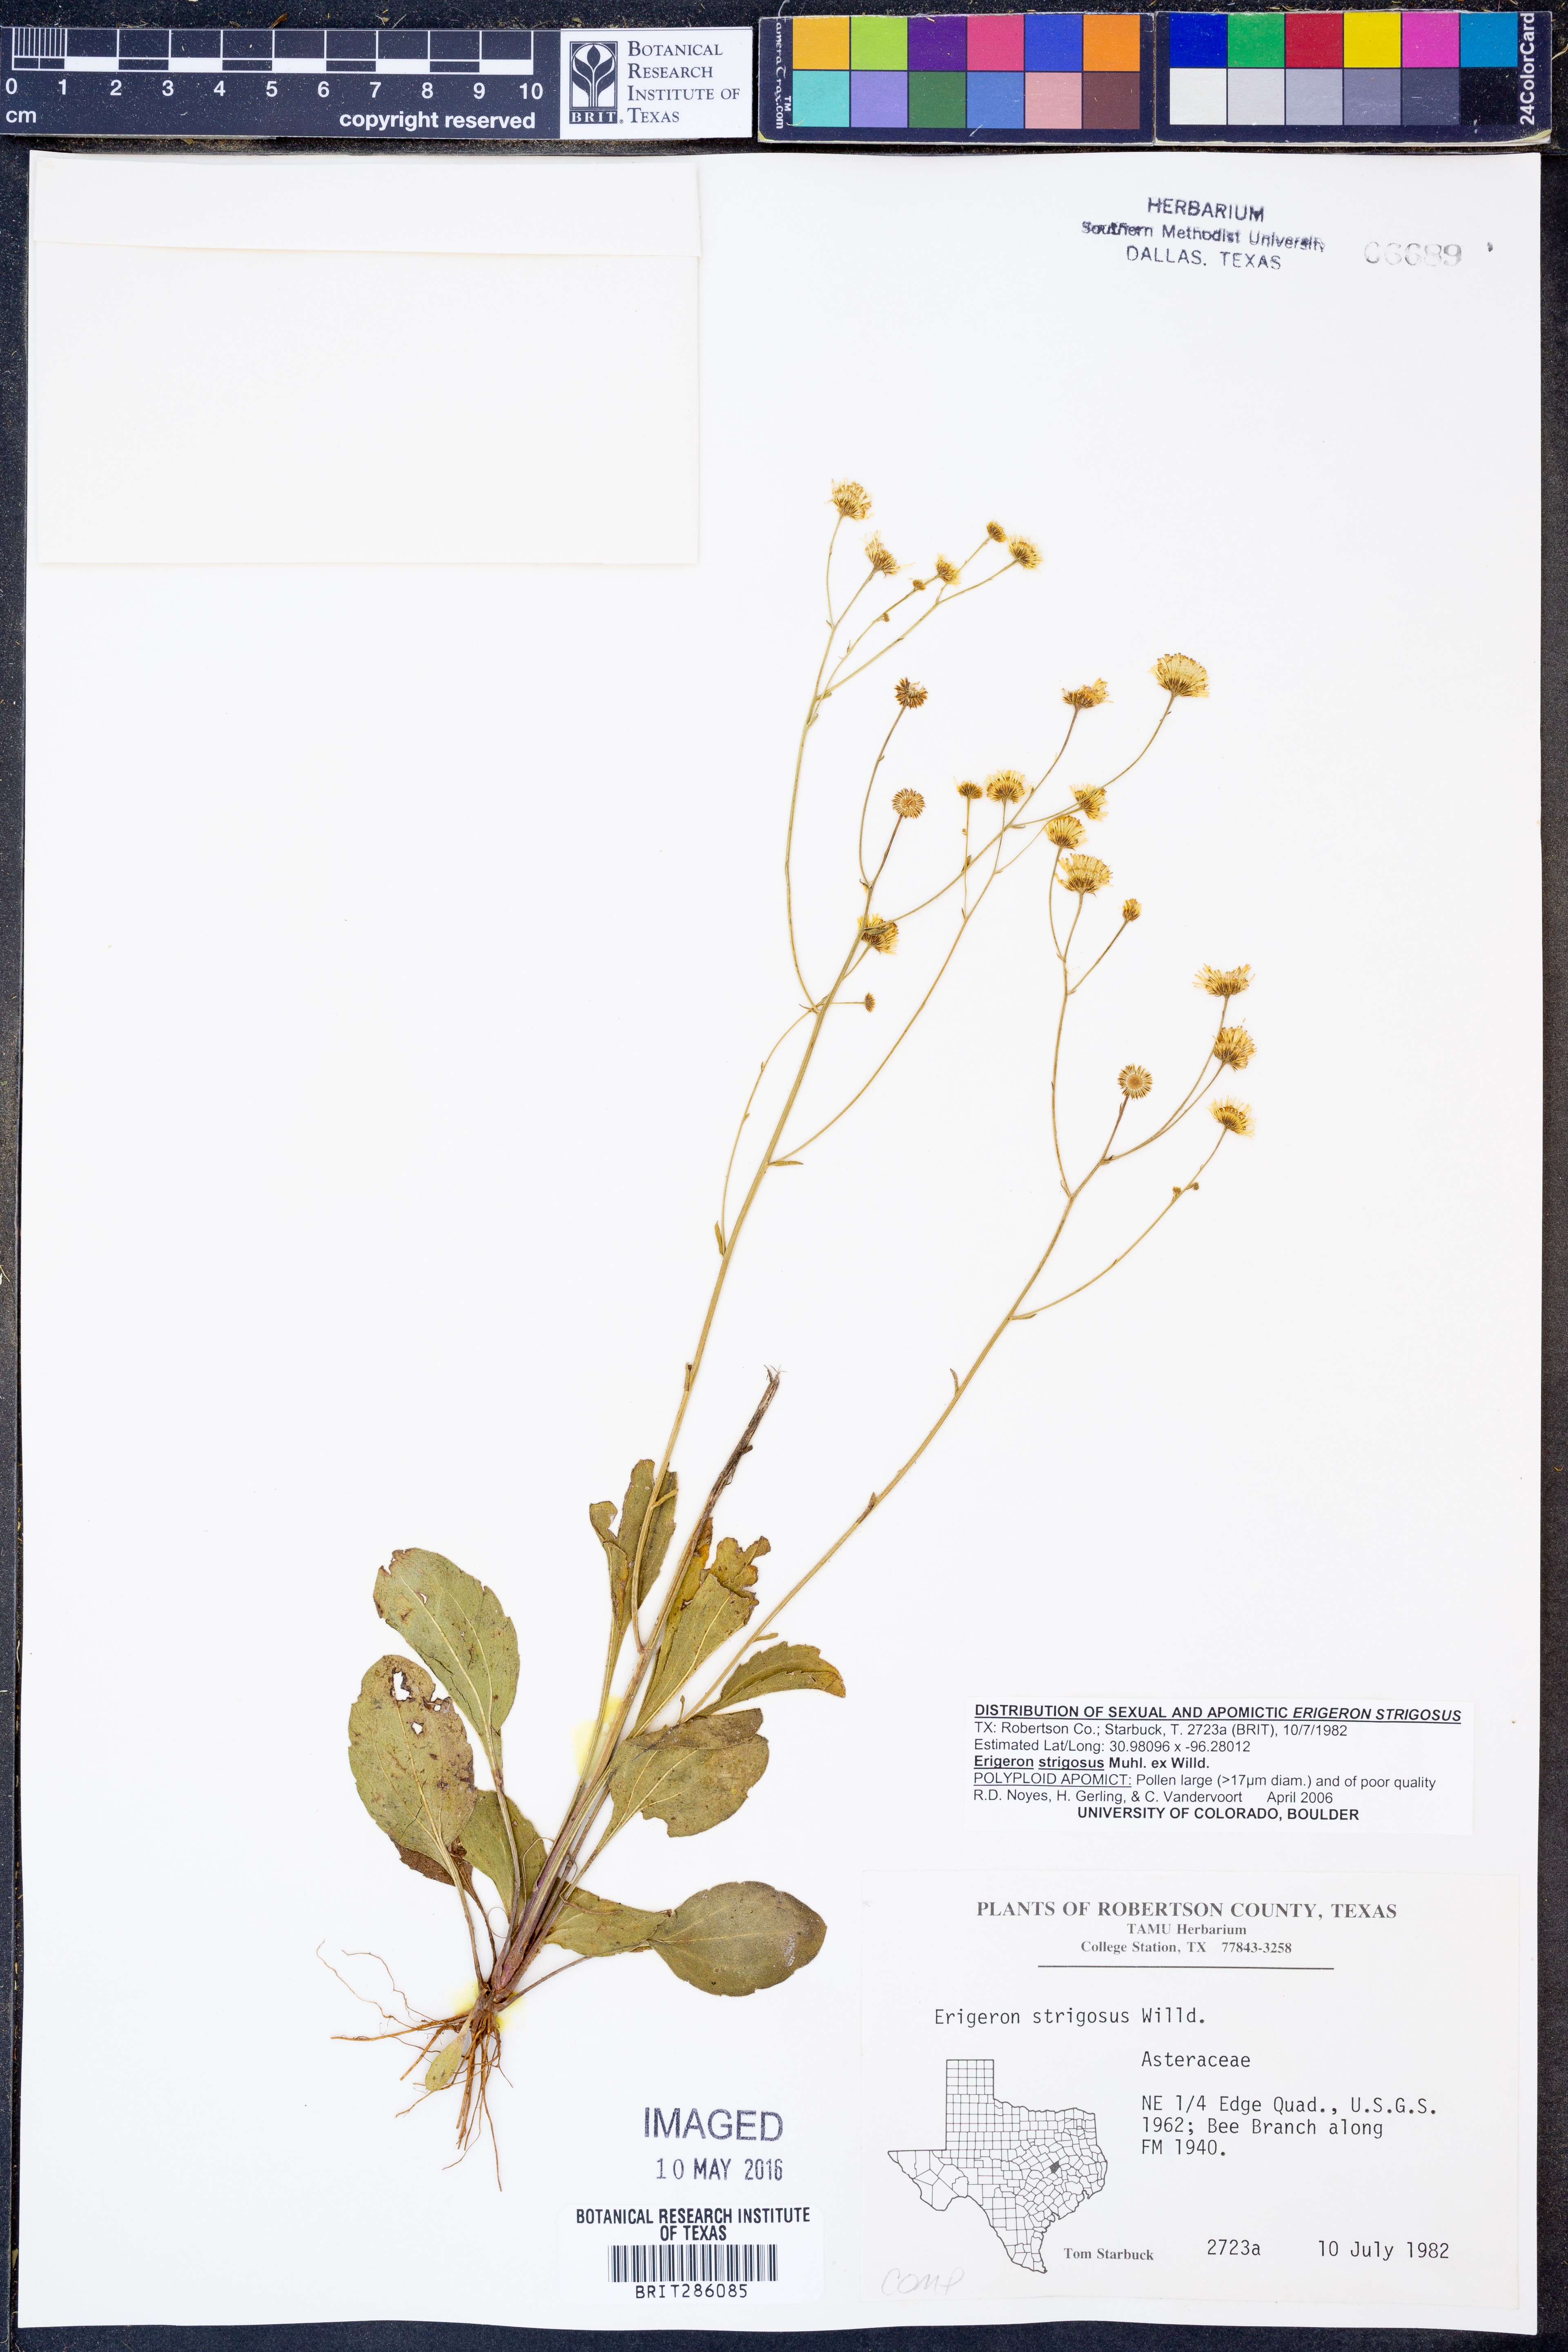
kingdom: Plantae
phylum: Tracheophyta
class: Magnoliopsida
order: Asterales
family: Asteraceae
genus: Erigeron
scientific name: Erigeron strigosus
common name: Common eastern fleabane
